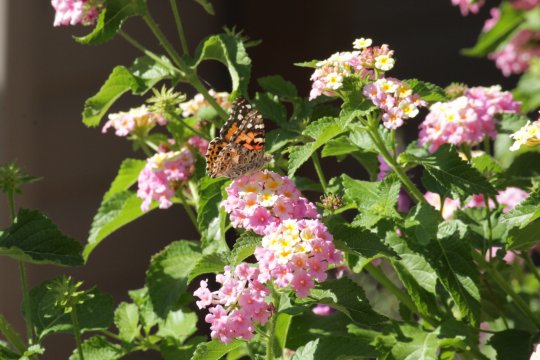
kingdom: Animalia
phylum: Arthropoda
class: Insecta
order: Lepidoptera
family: Nymphalidae
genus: Vanessa
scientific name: Vanessa cardui
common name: Painted Lady
